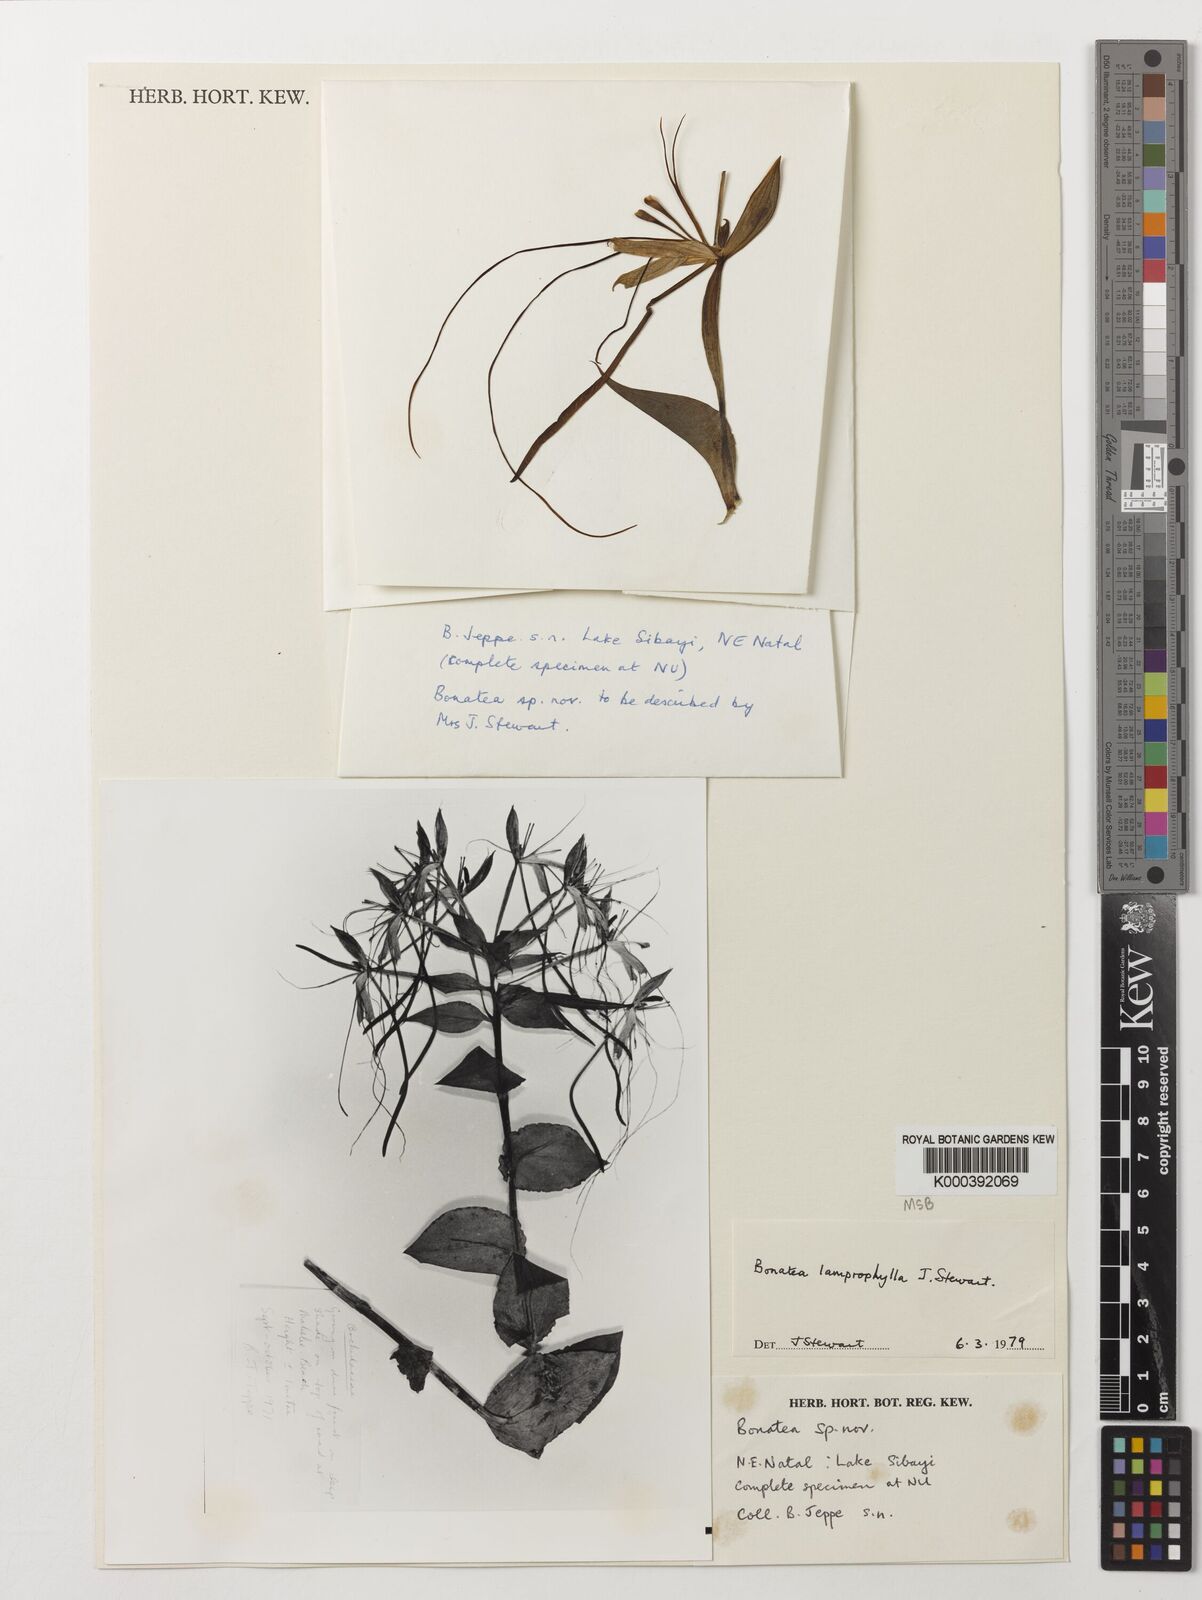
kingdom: Plantae
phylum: Tracheophyta
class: Liliopsida
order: Asparagales
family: Orchidaceae
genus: Bonatea
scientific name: Bonatea lamprophylla
